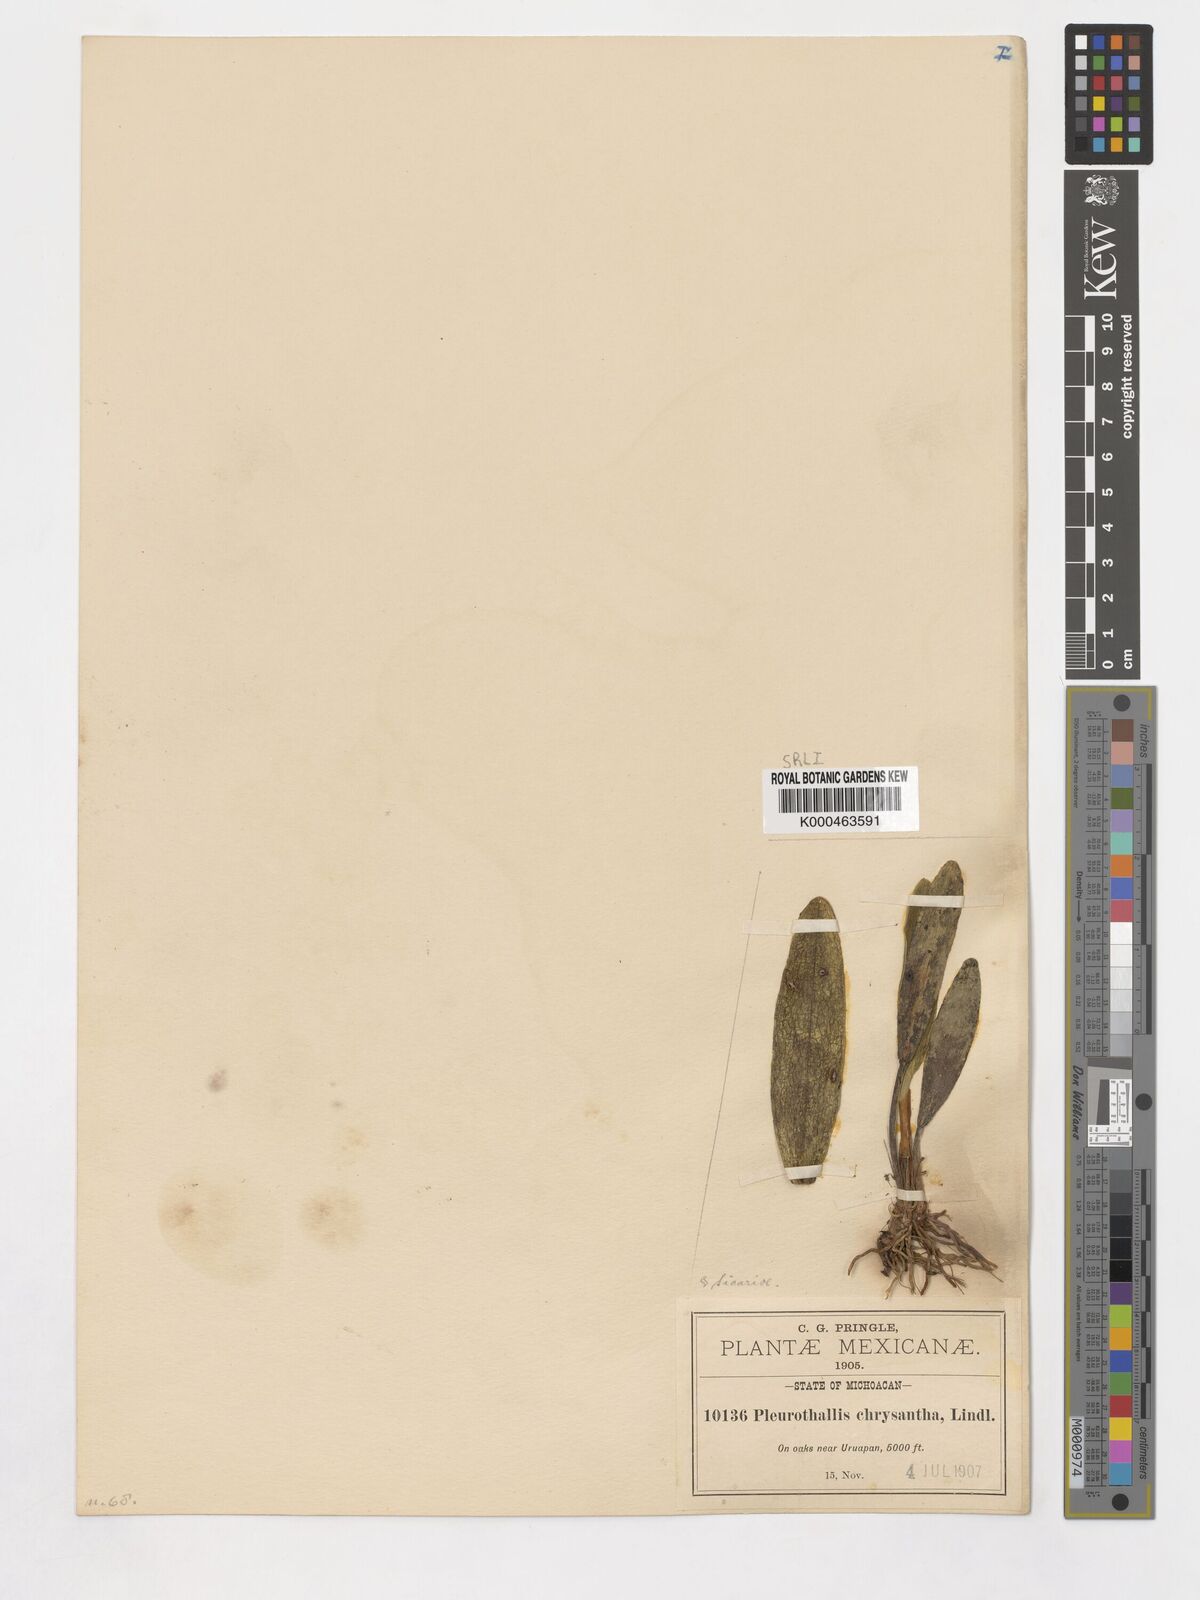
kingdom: Plantae
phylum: Tracheophyta
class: Liliopsida
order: Asparagales
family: Orchidaceae
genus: Acianthera
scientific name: Acianthera chrysantha
